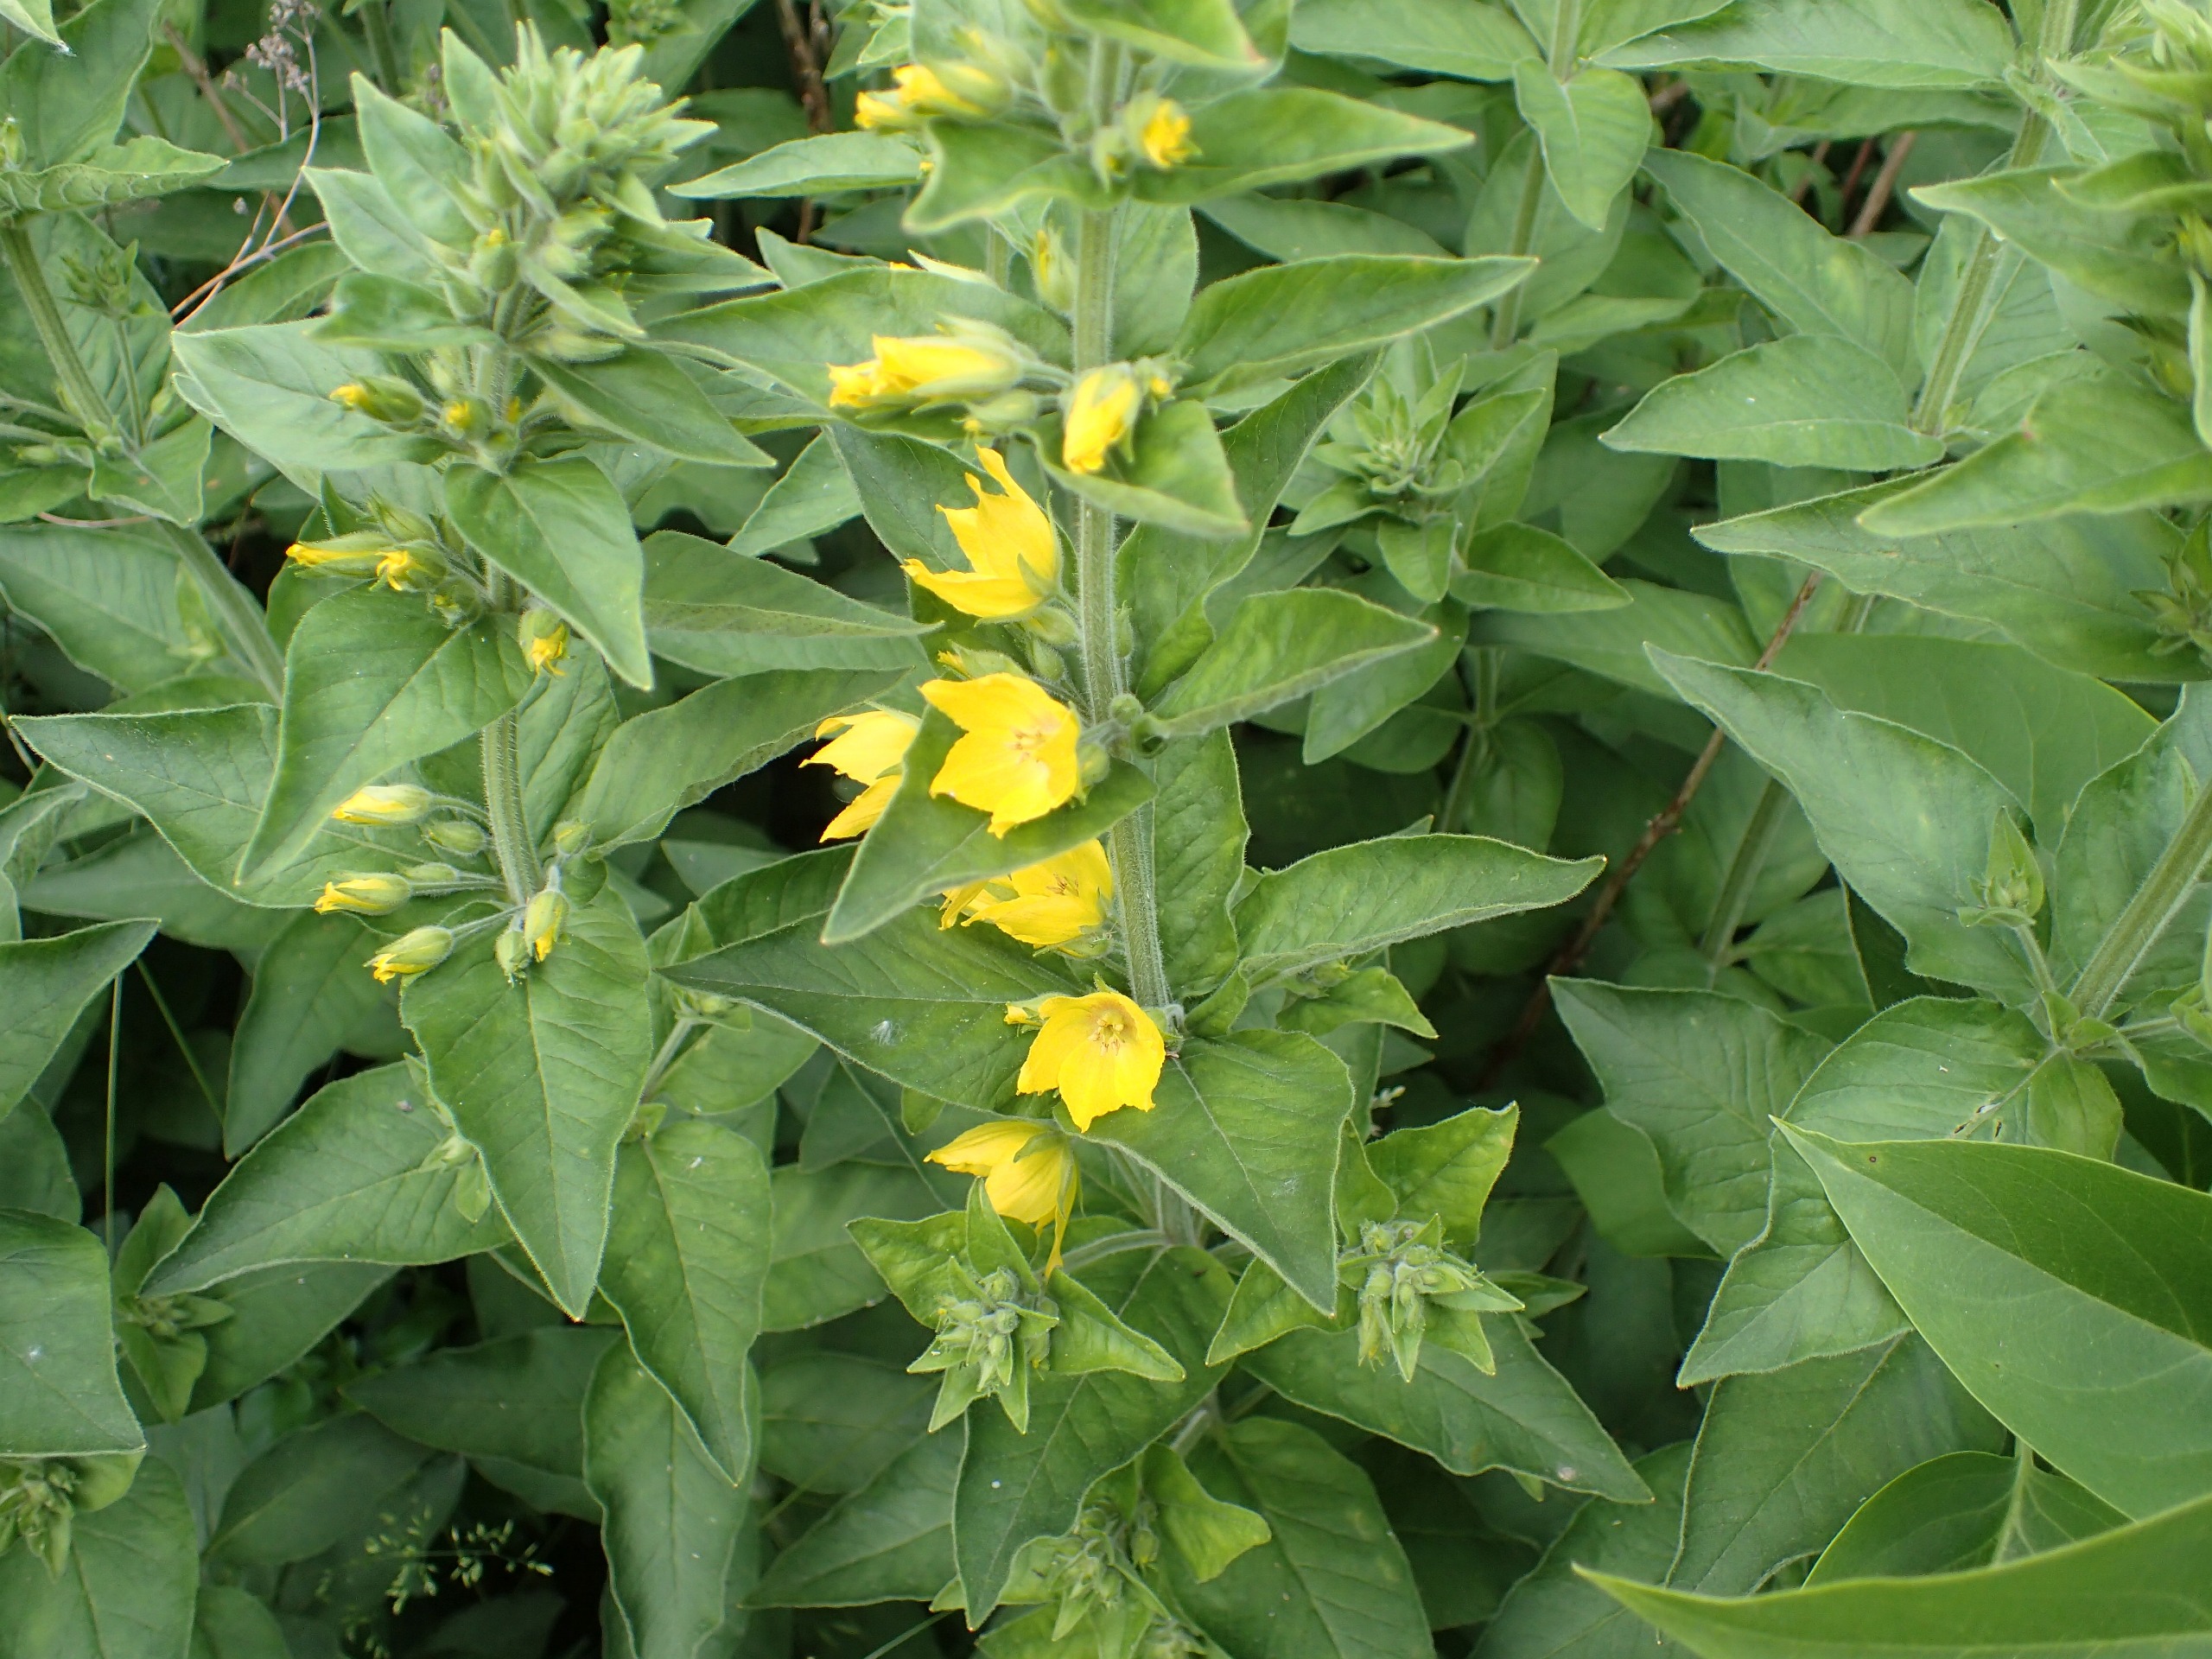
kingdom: Plantae
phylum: Tracheophyta
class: Magnoliopsida
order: Ericales
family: Primulaceae
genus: Lysimachia
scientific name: Lysimachia punctata
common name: Prikbladet fredløs
